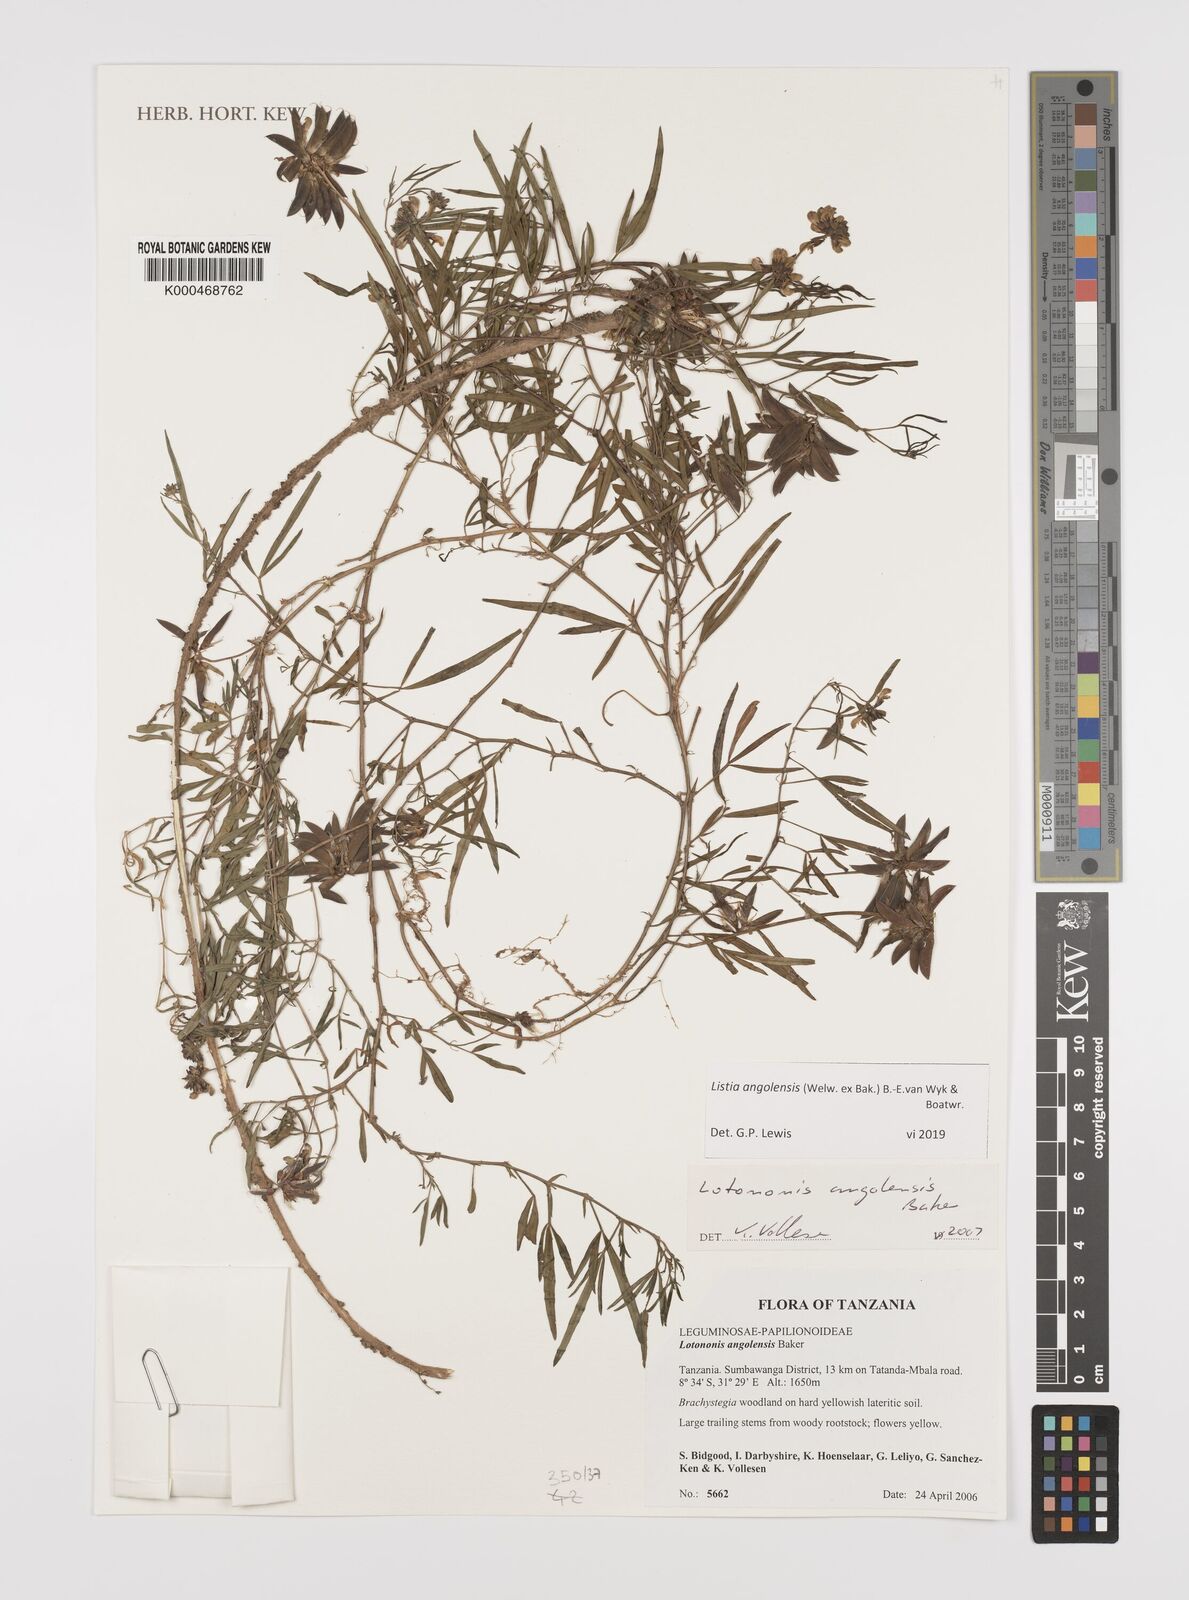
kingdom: Plantae
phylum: Tracheophyta
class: Magnoliopsida
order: Fabales
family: Fabaceae
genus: Listia
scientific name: Listia angolensis
